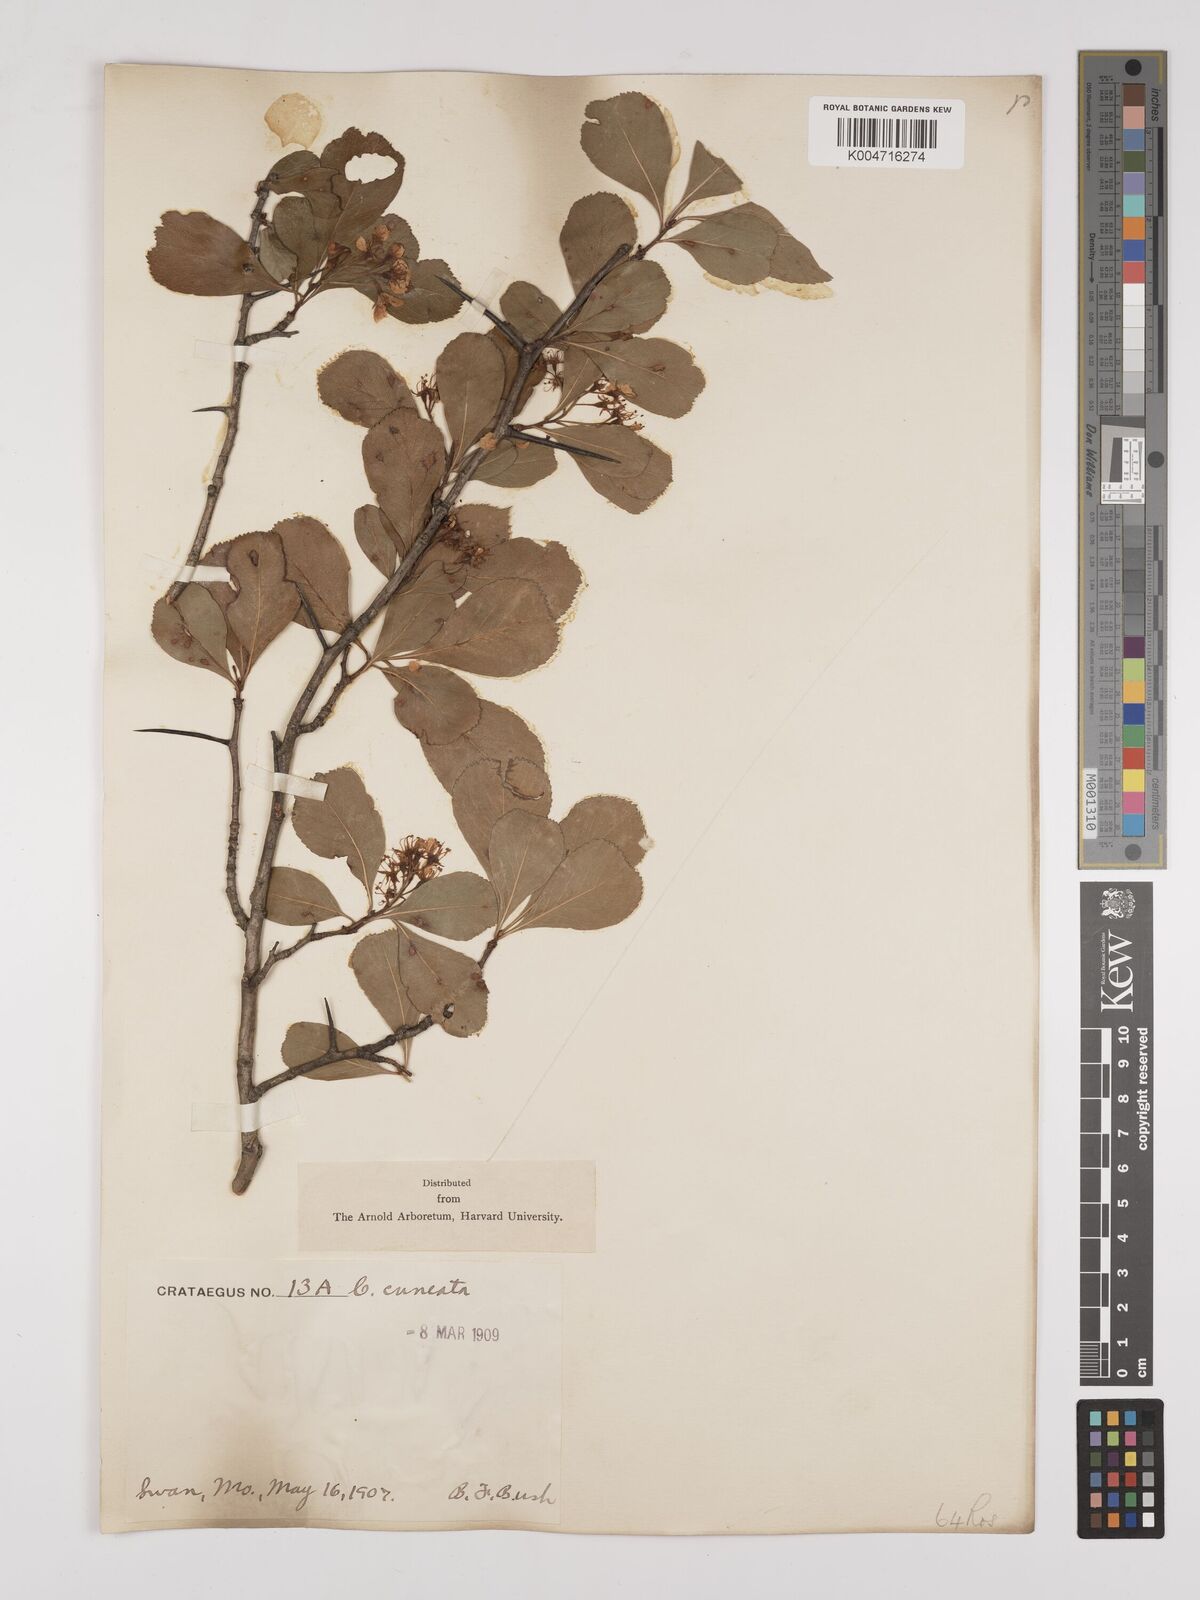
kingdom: Plantae
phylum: Tracheophyta
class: Magnoliopsida
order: Rosales
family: Rosaceae
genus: Crataegus
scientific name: Crataegus
